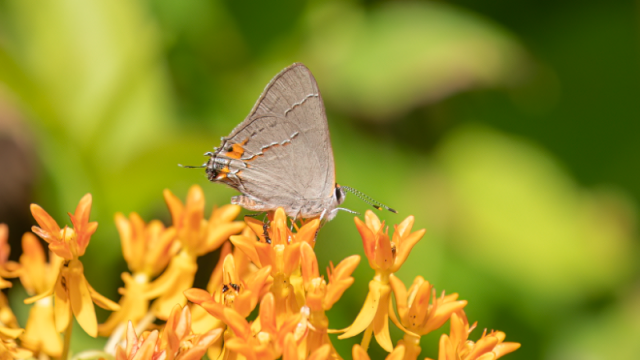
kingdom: Animalia
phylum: Arthropoda
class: Insecta
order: Lepidoptera
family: Lycaenidae
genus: Strymon
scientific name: Strymon melinus
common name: Gray Hairstreak
